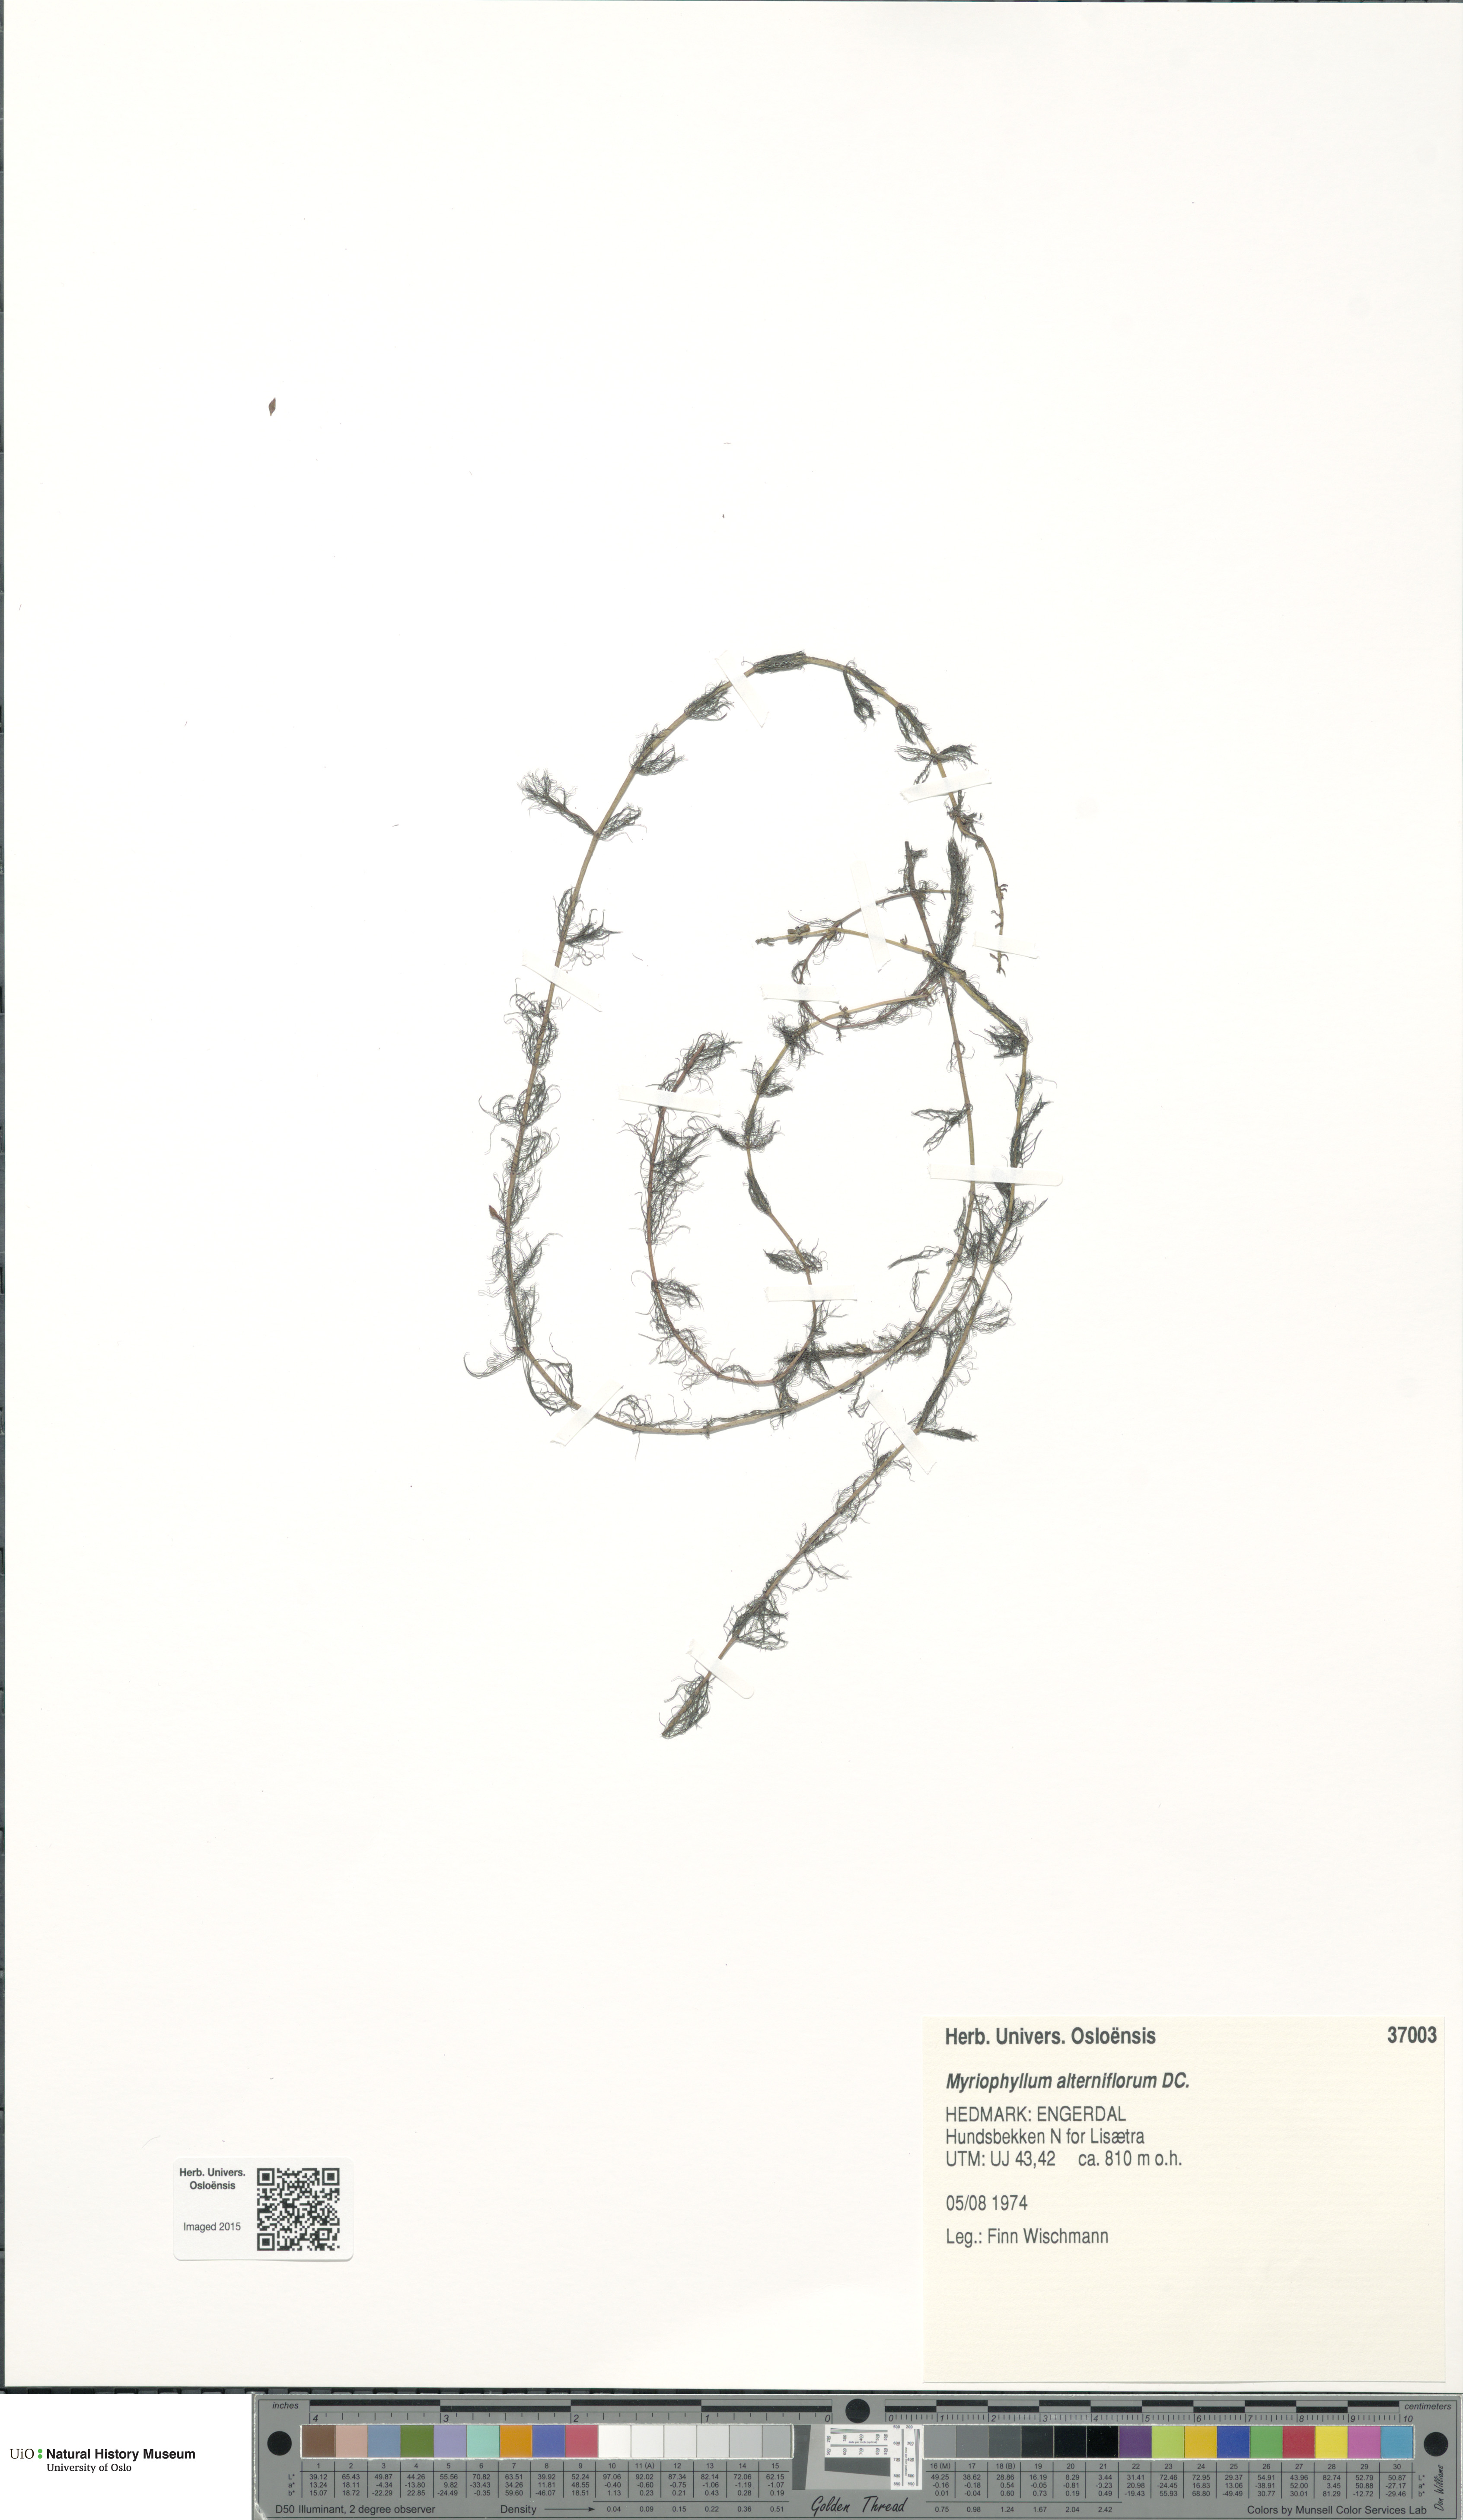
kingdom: Plantae
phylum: Tracheophyta
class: Magnoliopsida
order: Saxifragales
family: Haloragaceae
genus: Myriophyllum
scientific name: Myriophyllum alterniflorum
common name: Alternate water-milfoil
